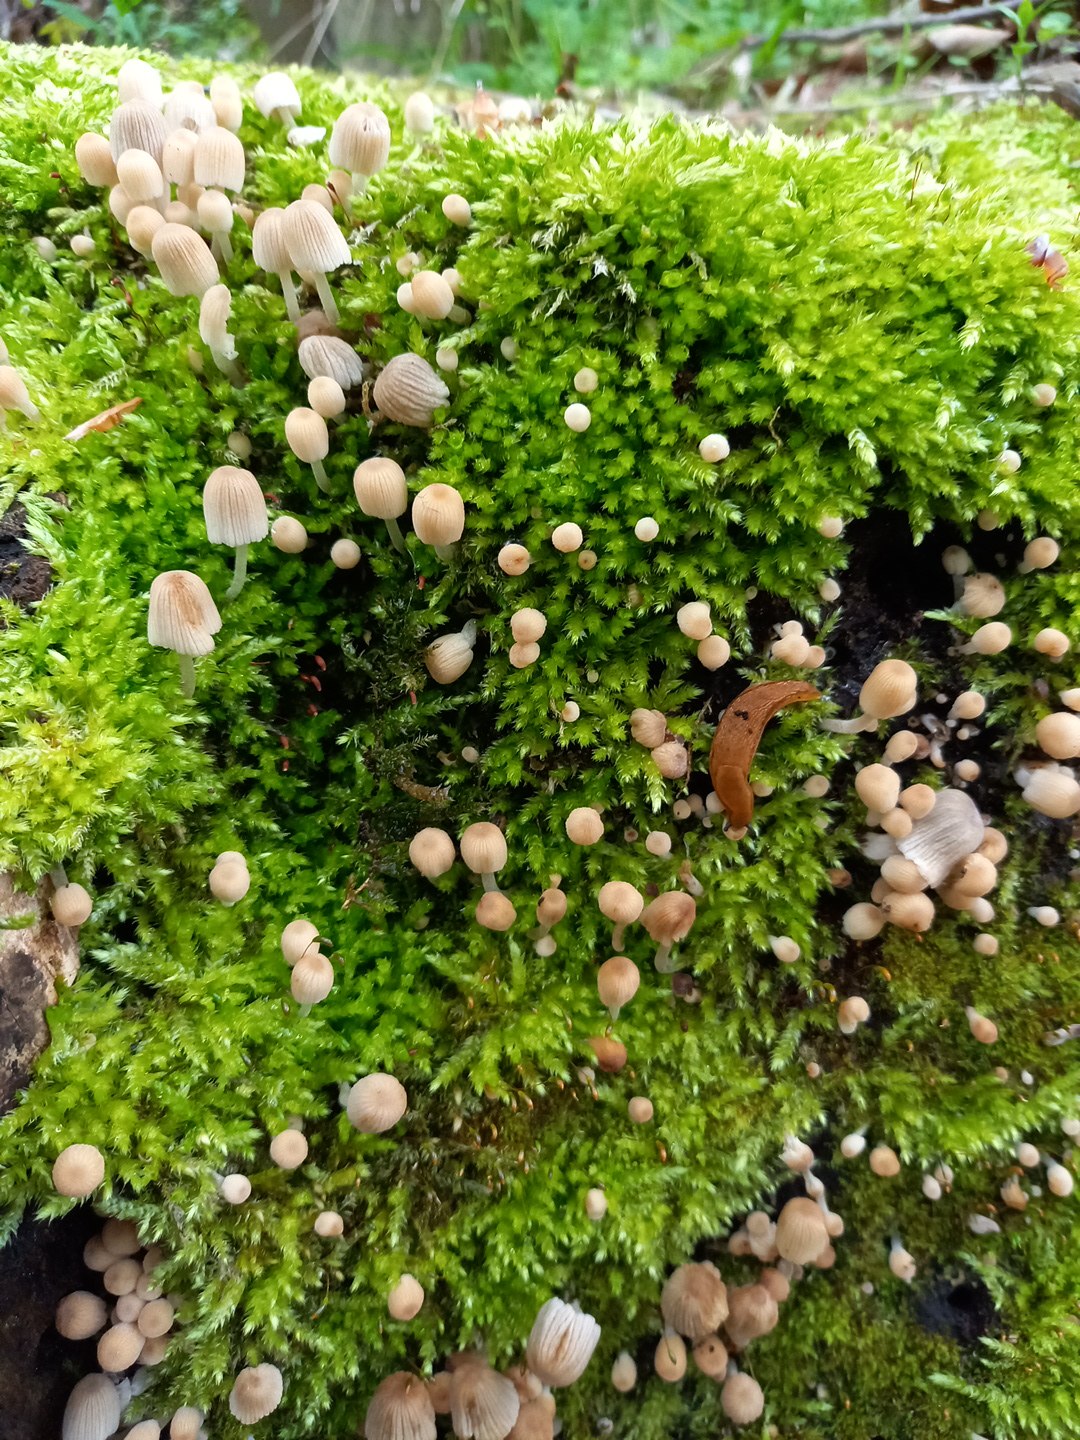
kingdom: Fungi
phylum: Basidiomycota
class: Agaricomycetes
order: Agaricales
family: Psathyrellaceae
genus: Coprinellus
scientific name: Coprinellus disseminatus
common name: bredsået blækhat
